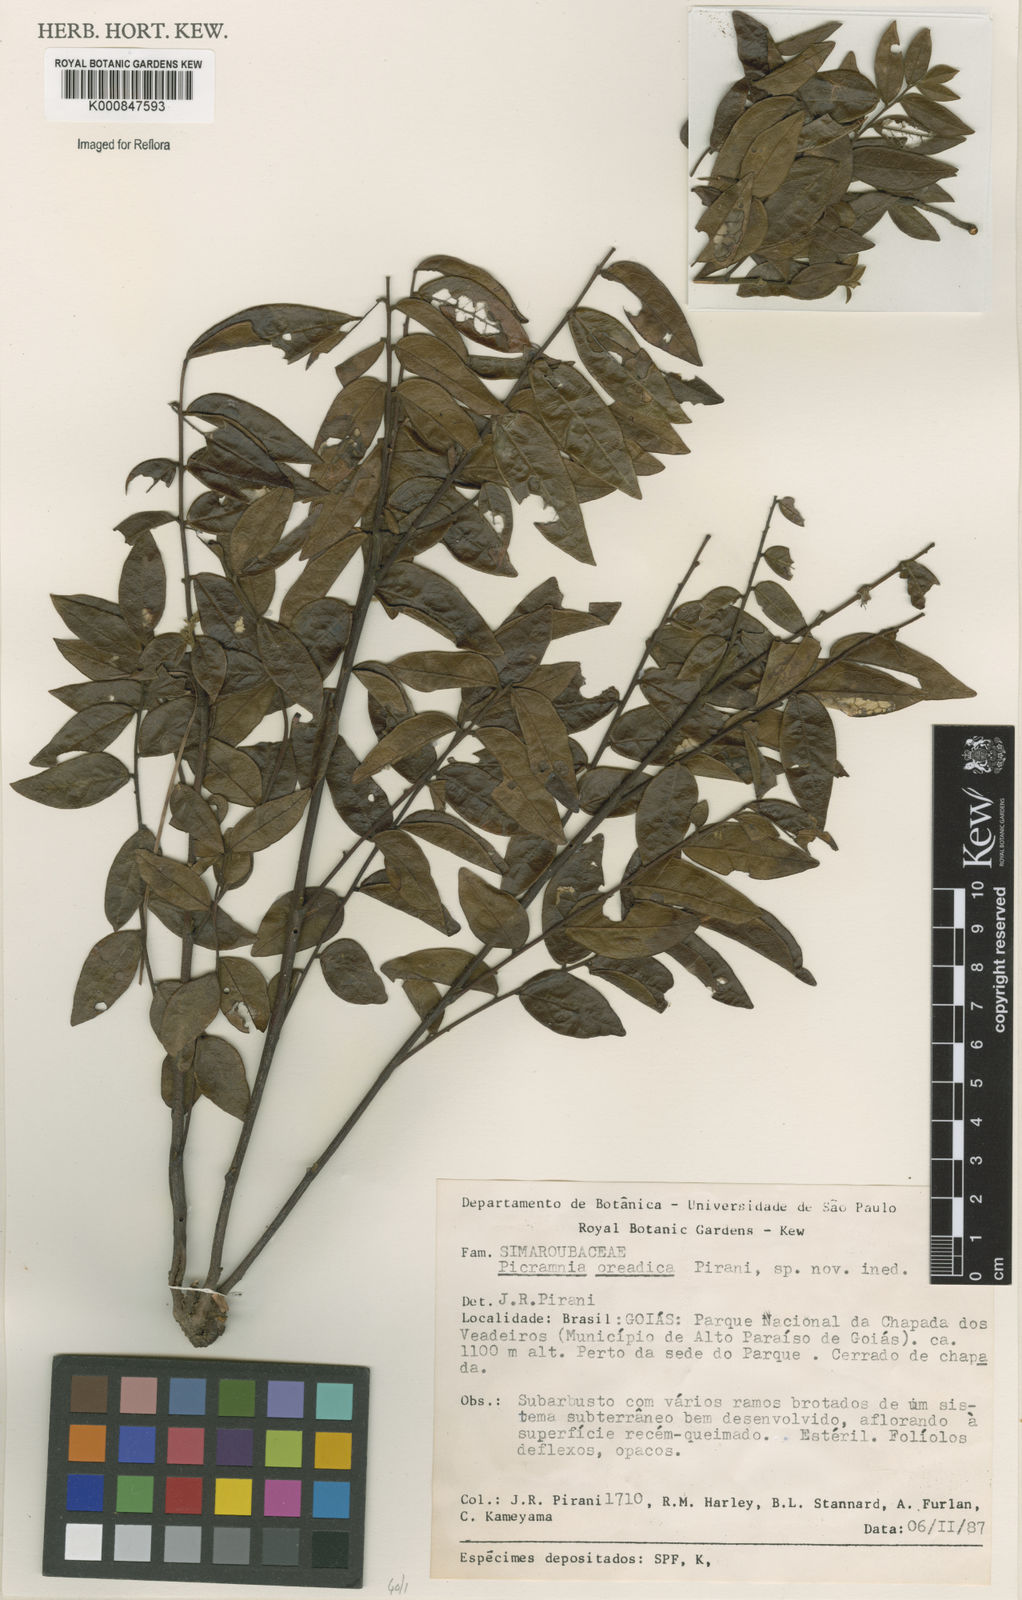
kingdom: Plantae
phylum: Tracheophyta
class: Magnoliopsida
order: Picramniales
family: Picramniaceae
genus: Picramnia
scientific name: Picramnia oreadica
